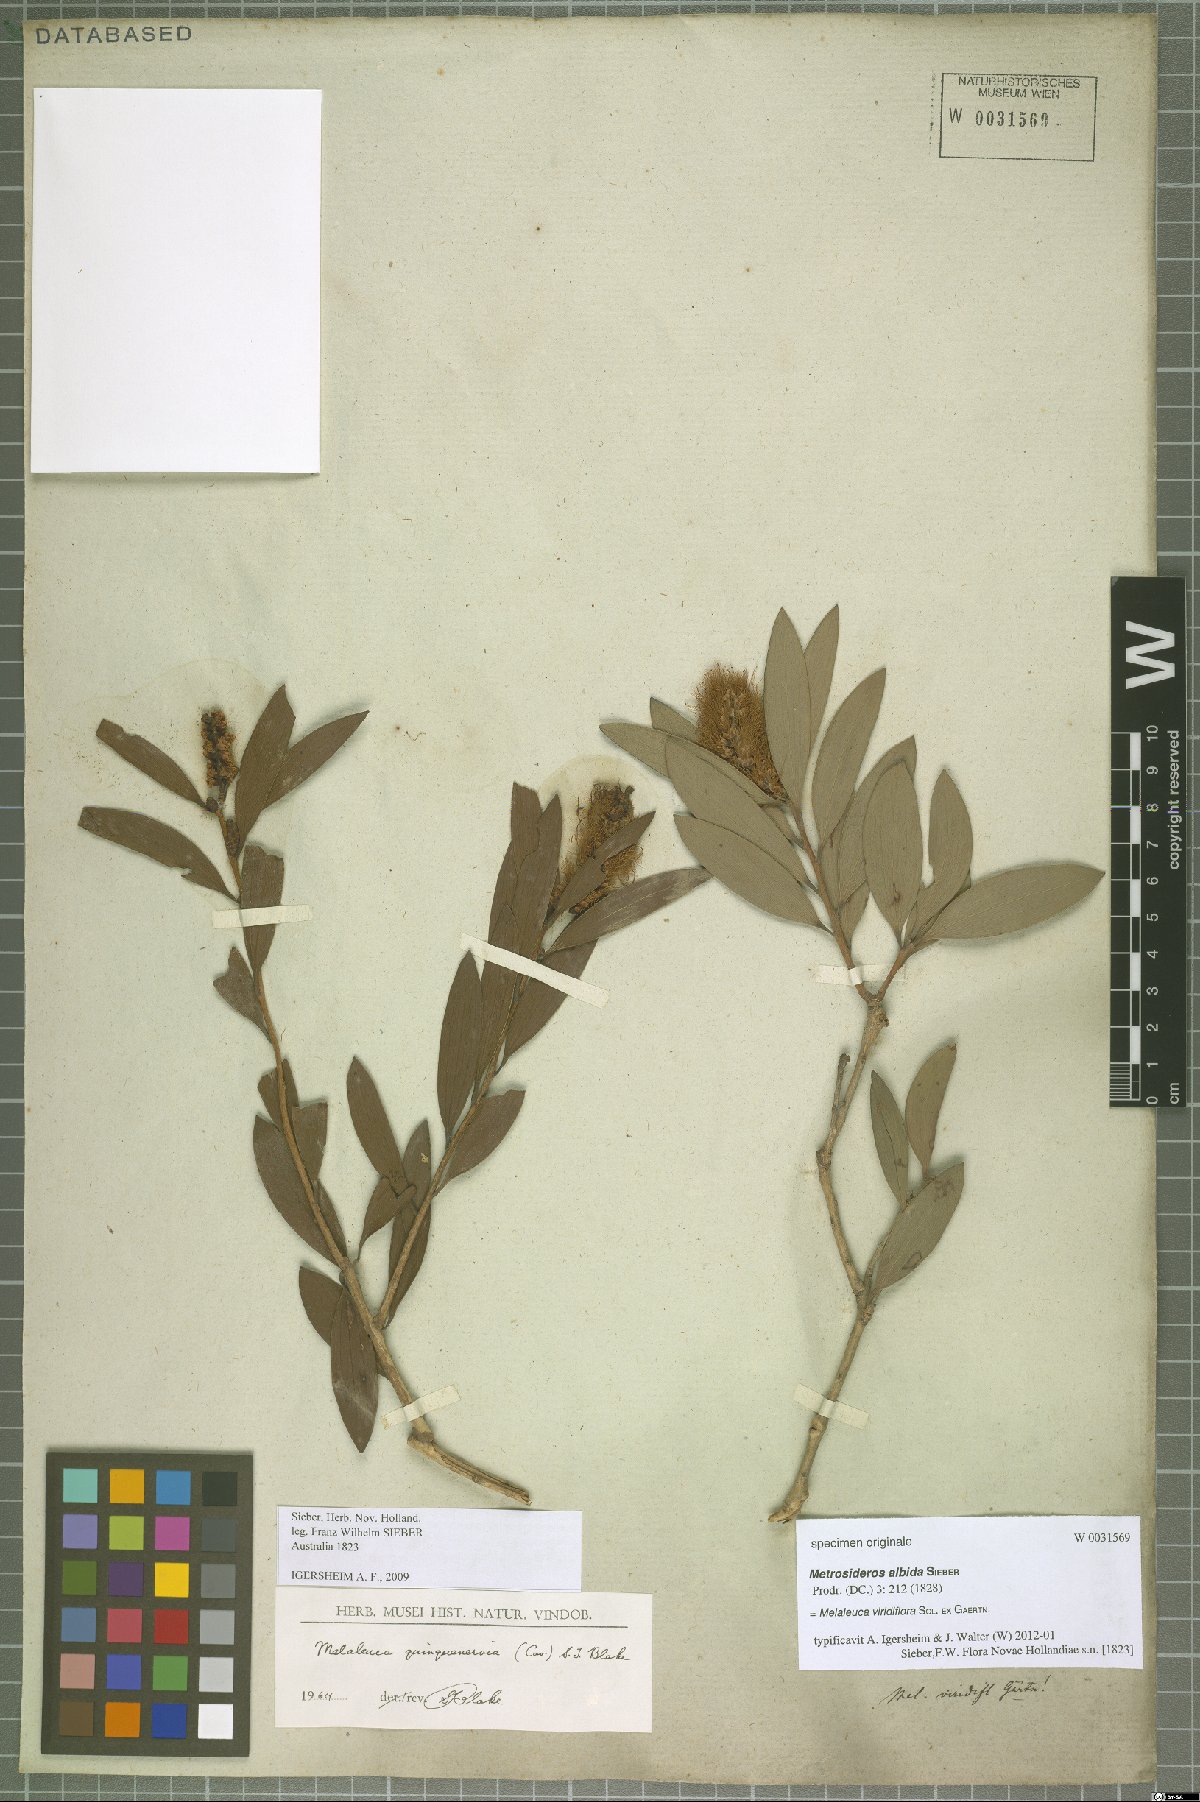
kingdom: Plantae
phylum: Tracheophyta
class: Magnoliopsida
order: Myrtales
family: Myrtaceae
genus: Melaleuca
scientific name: Melaleuca viridiflora
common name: Brown-leaved paperbark
